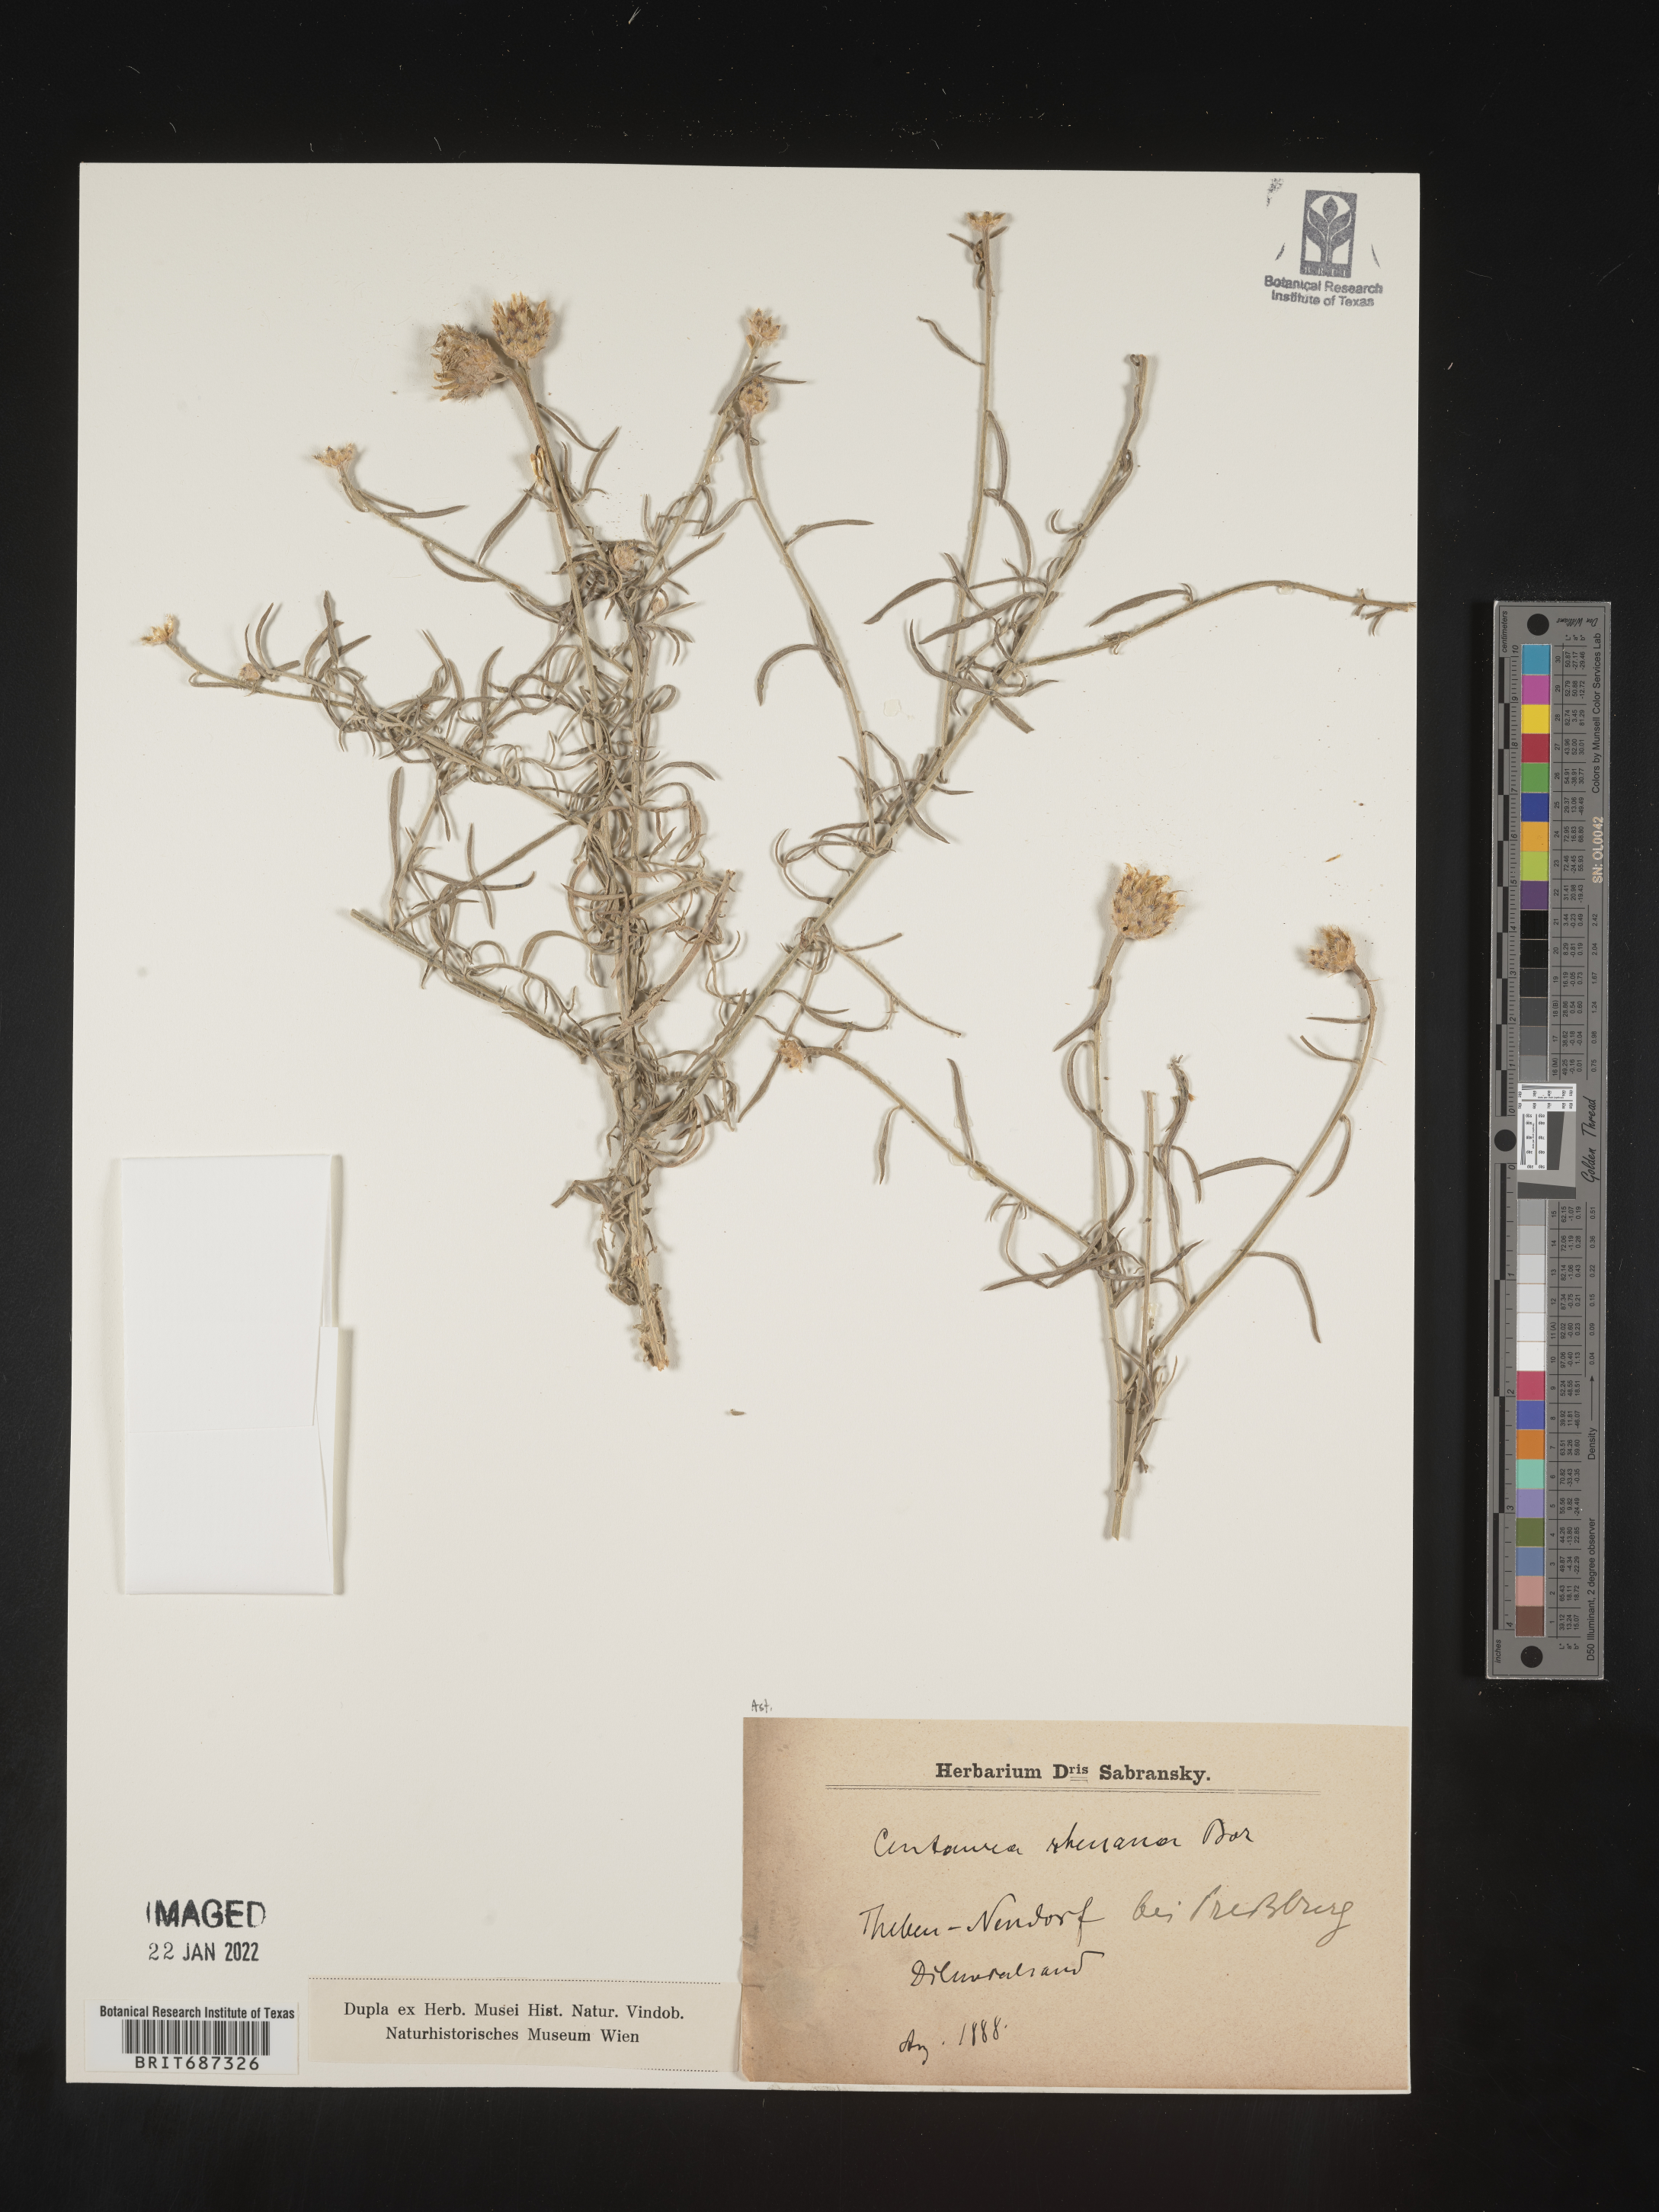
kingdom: Plantae
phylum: Tracheophyta
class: Magnoliopsida
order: Asterales
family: Asteraceae
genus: Centaurea
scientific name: Centaurea
